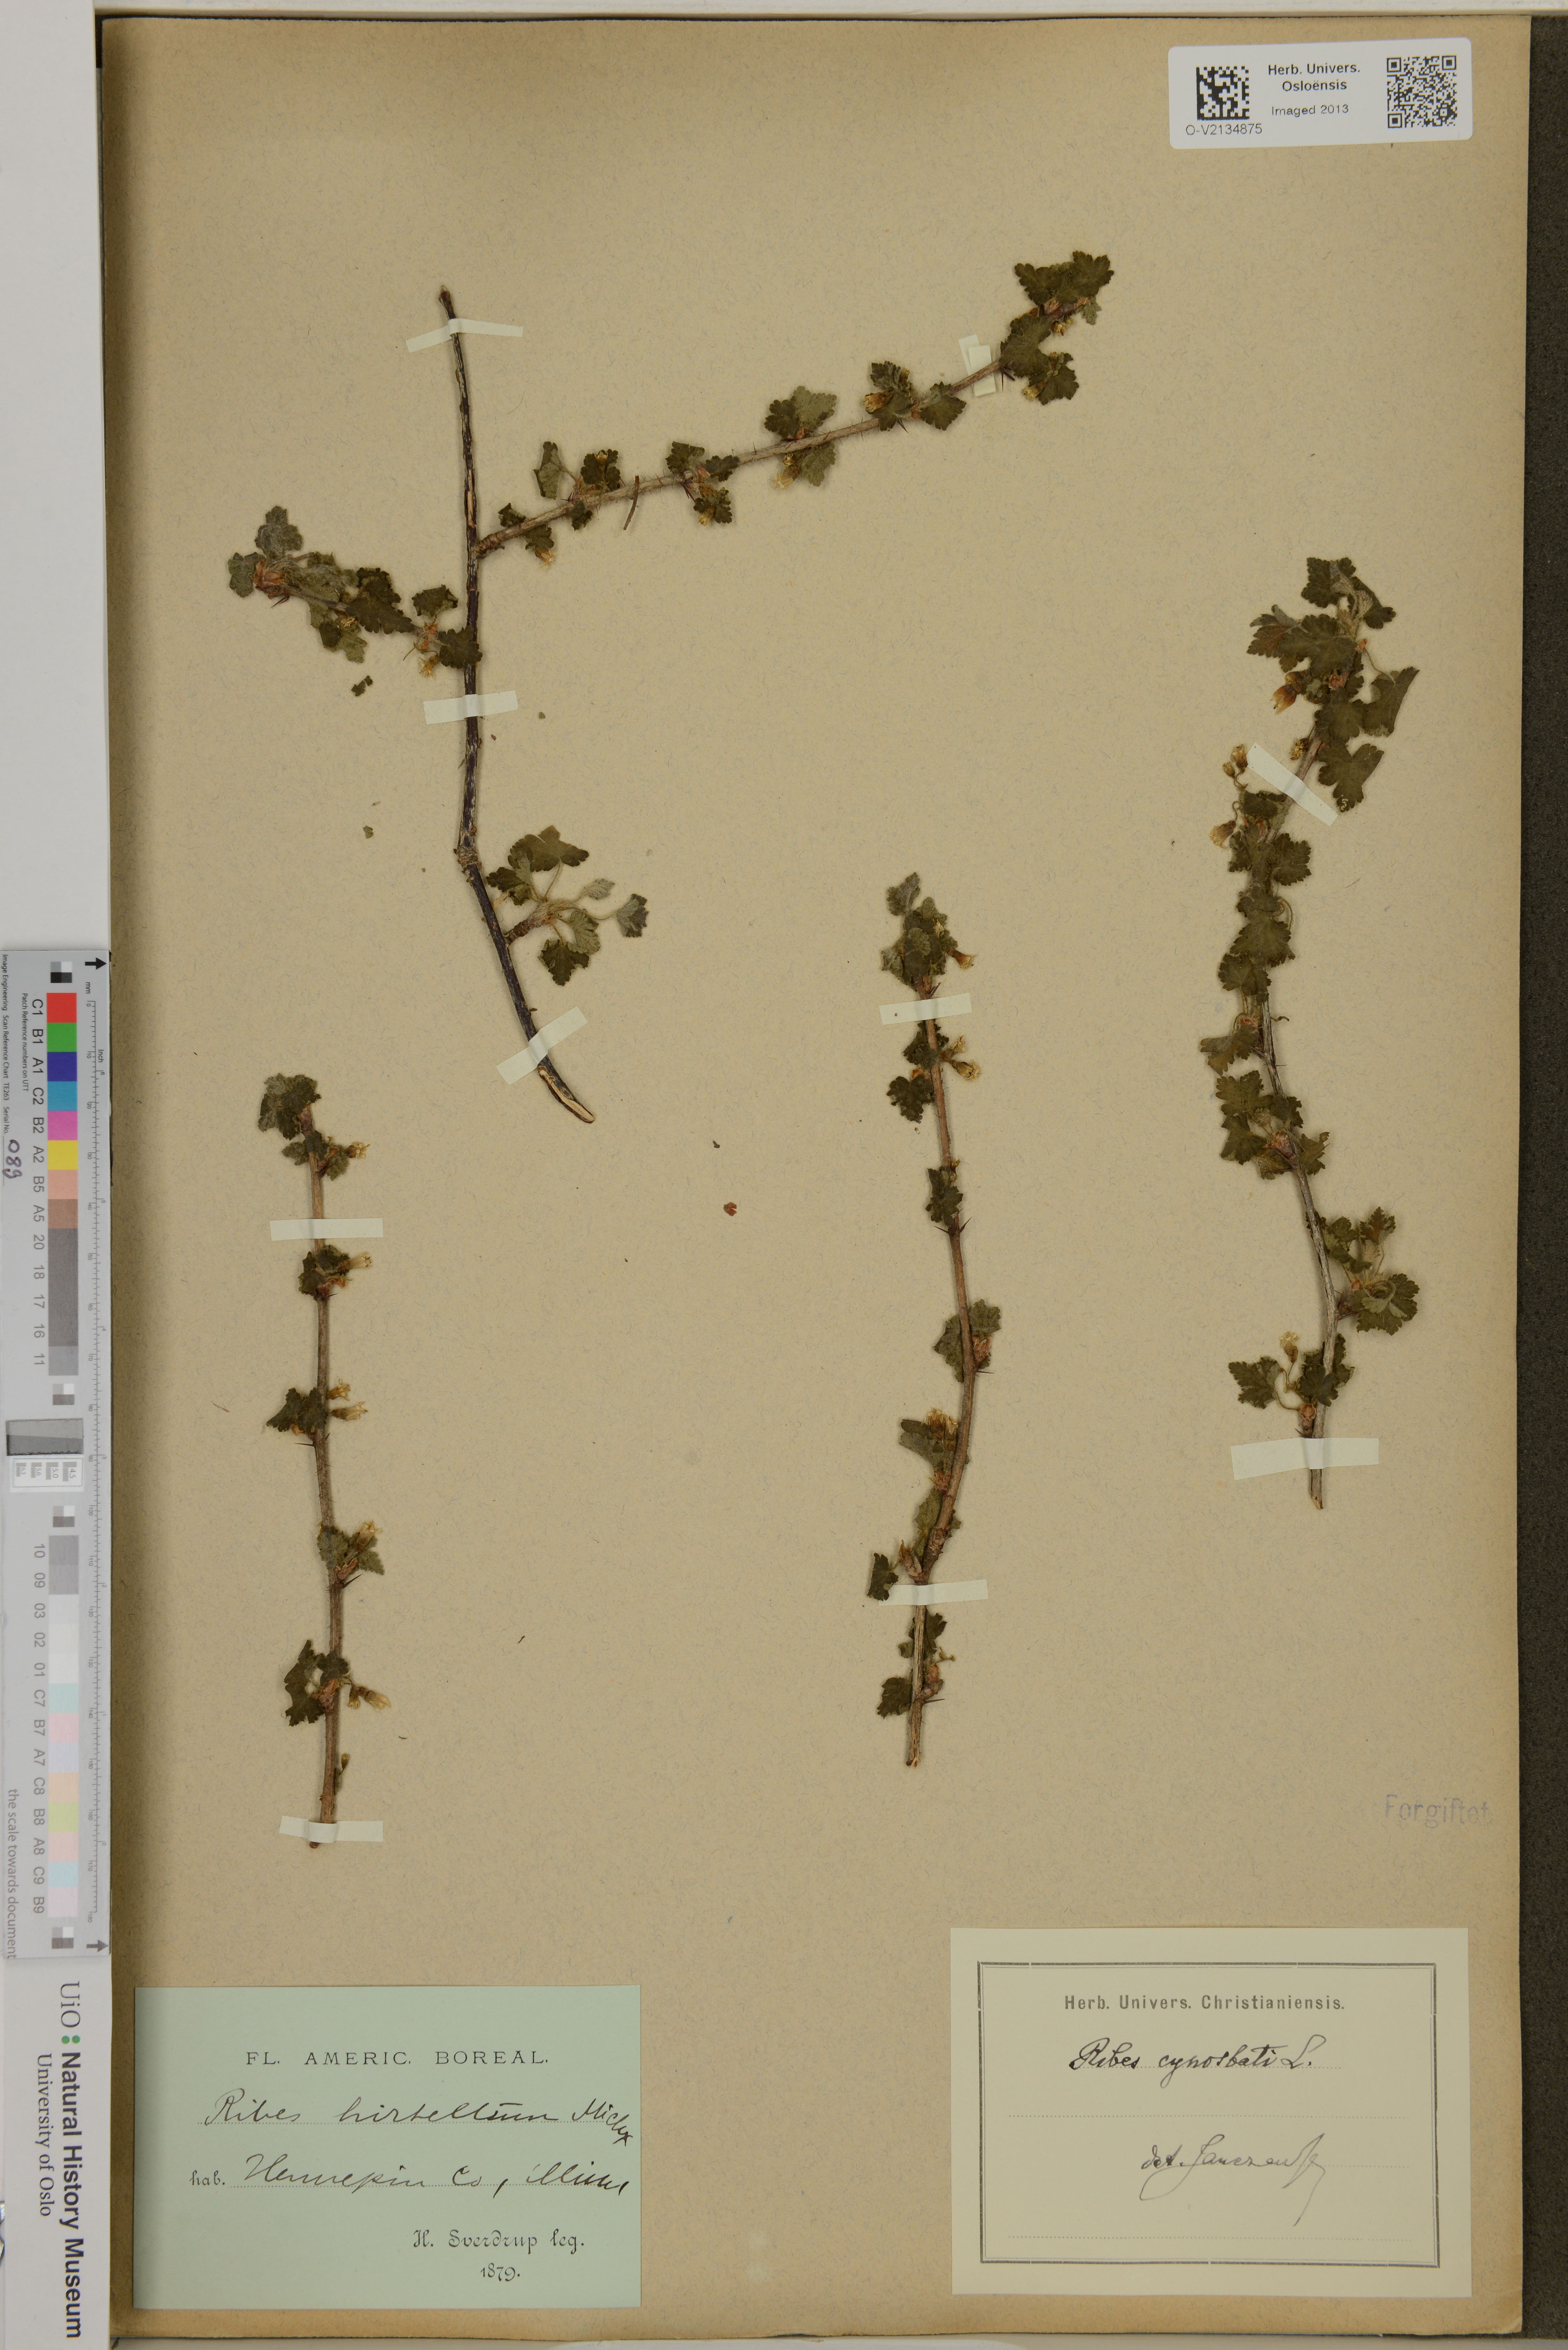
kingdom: Plantae
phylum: Tracheophyta
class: Magnoliopsida
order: Saxifragales
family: Grossulariaceae
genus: Ribes
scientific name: Ribes cynosbati
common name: American gooseberry
